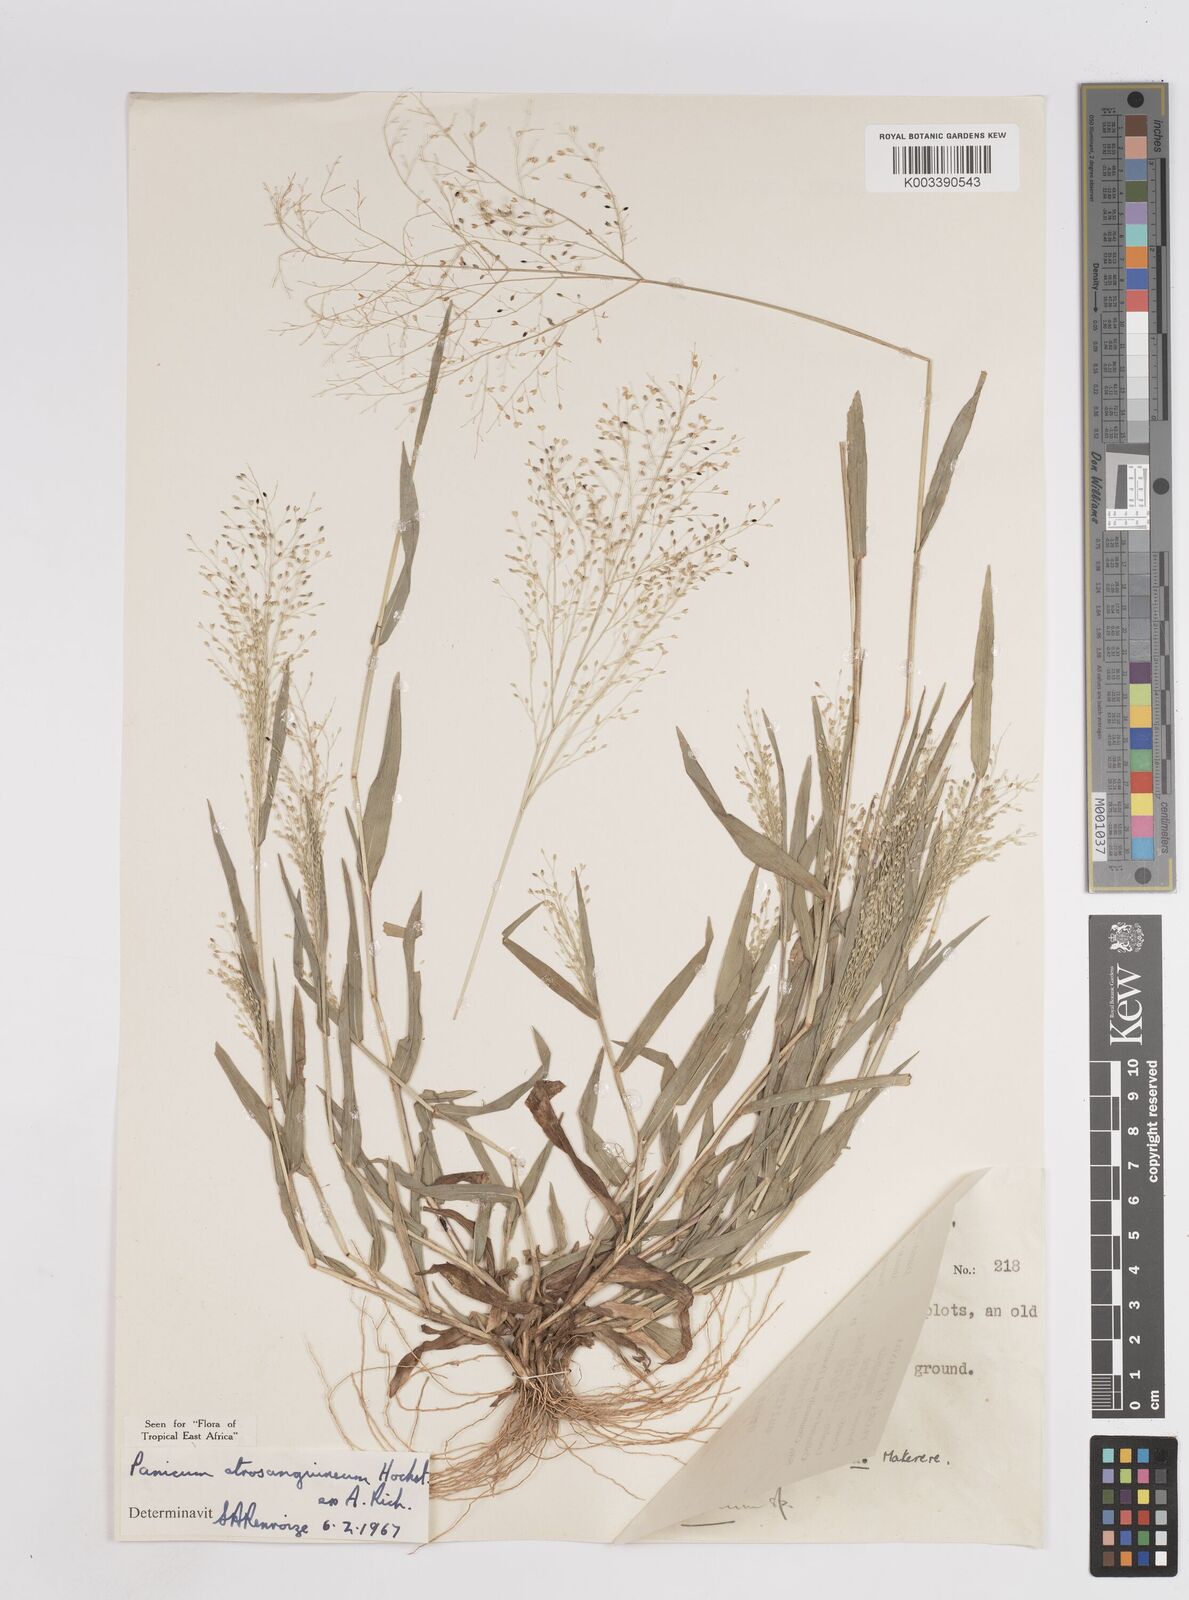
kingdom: Plantae
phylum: Tracheophyta
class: Liliopsida
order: Poales
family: Poaceae
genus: Panicum
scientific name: Panicum atrosanguineum
